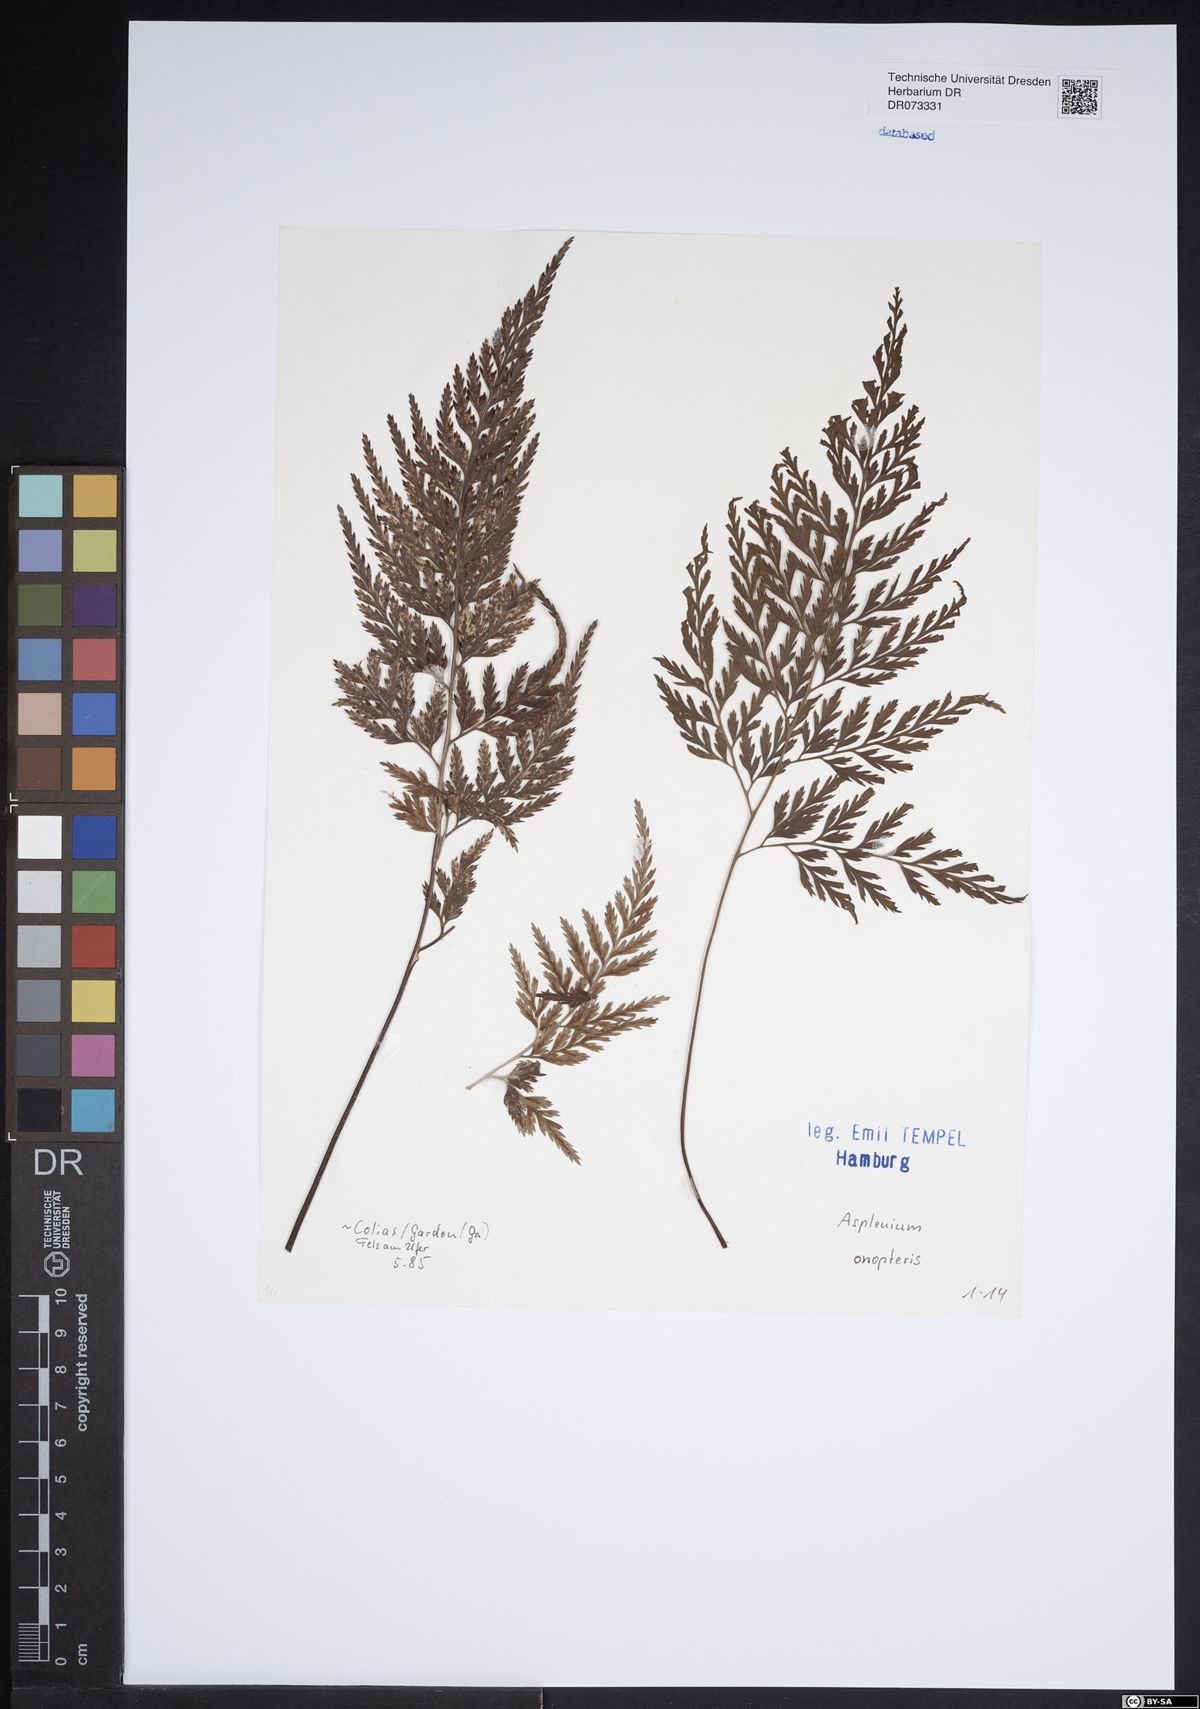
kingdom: Plantae
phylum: Tracheophyta
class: Polypodiopsida
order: Polypodiales
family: Aspleniaceae
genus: Asplenium
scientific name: Asplenium onopteris
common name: Irish spleenwort
